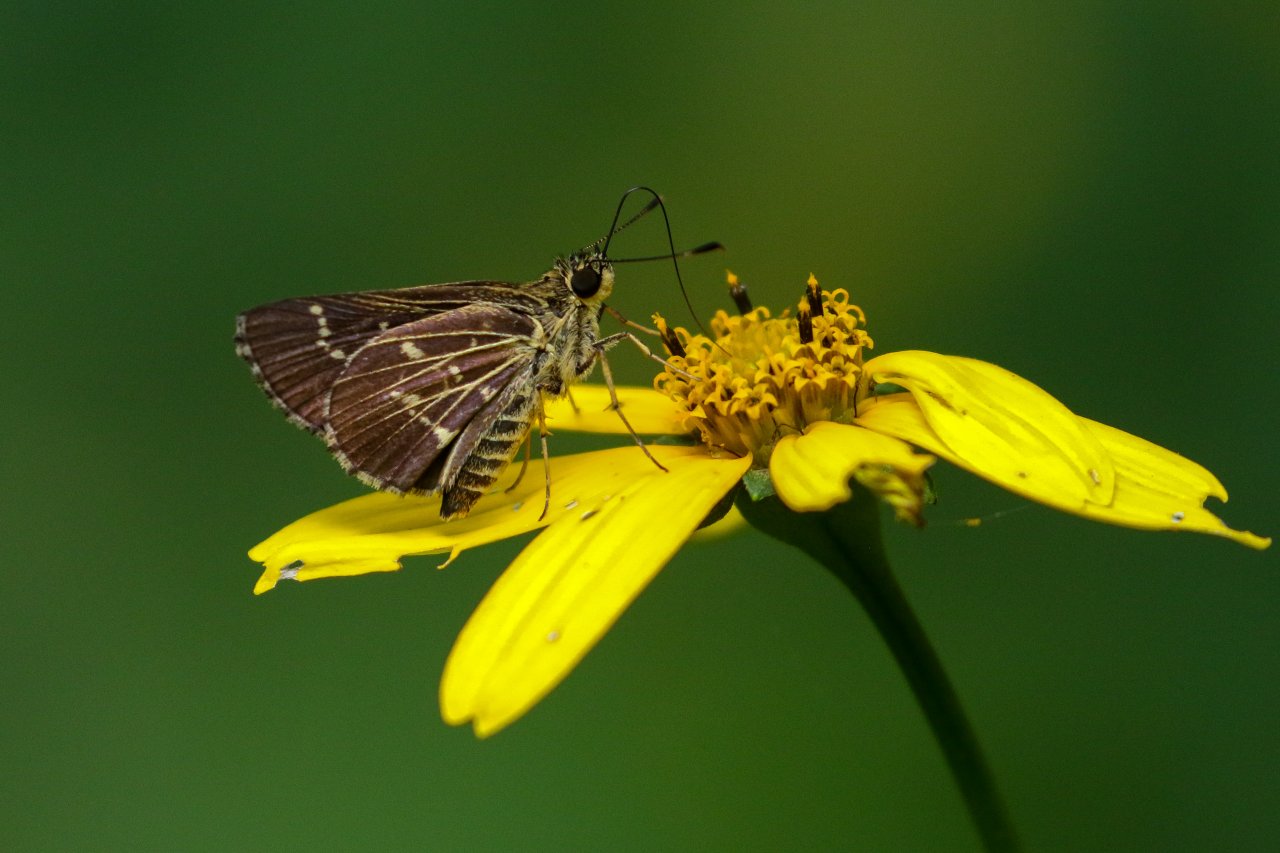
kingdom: Animalia
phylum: Arthropoda
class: Insecta
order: Lepidoptera
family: Hesperiidae
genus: Mastor
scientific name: Mastor aesculapius
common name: Lace-winged Roadside-Skipper
